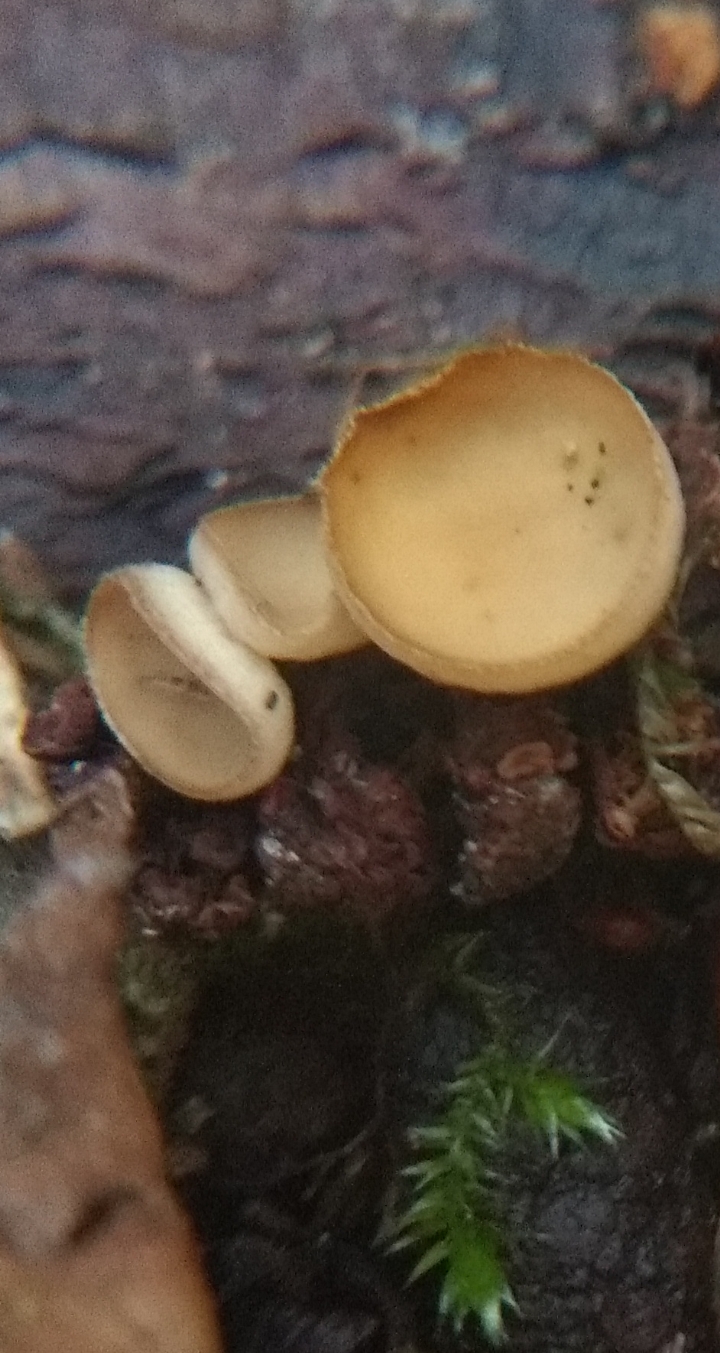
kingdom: Fungi
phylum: Ascomycota
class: Leotiomycetes
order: Helotiales
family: Sclerotiniaceae
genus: Ciboria
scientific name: Ciboria amentacea
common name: ellerakle-knoldskive
